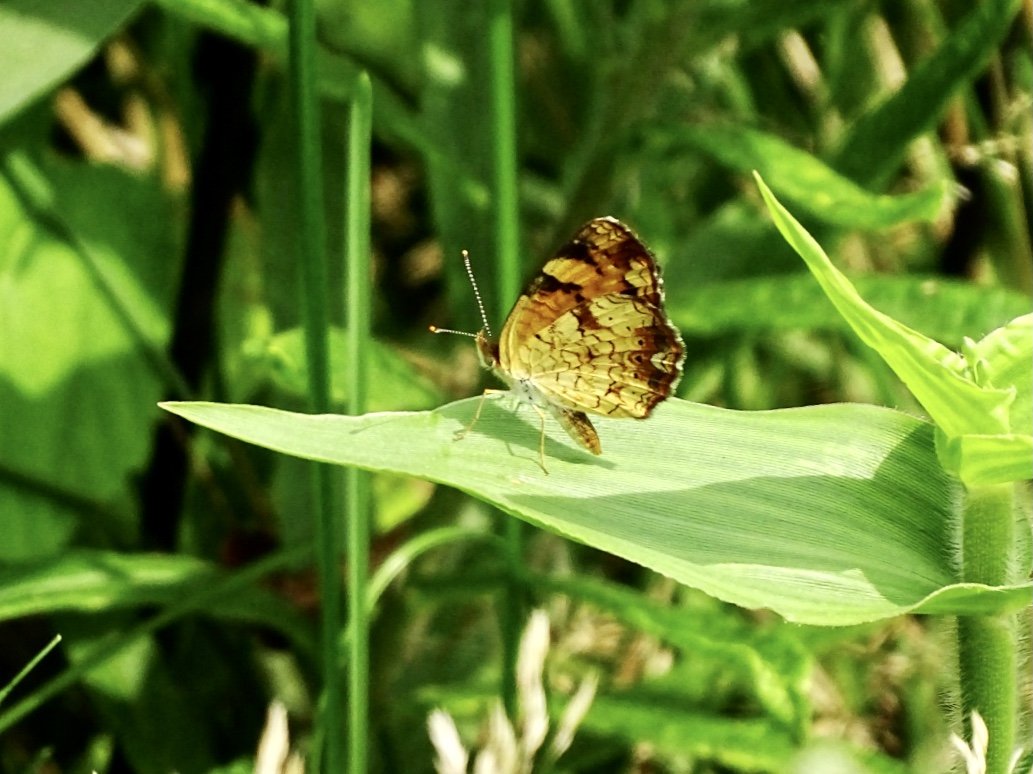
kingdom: Animalia
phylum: Arthropoda
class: Insecta
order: Lepidoptera
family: Nymphalidae
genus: Phyciodes
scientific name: Phyciodes tharos
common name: Pearl Crescent
